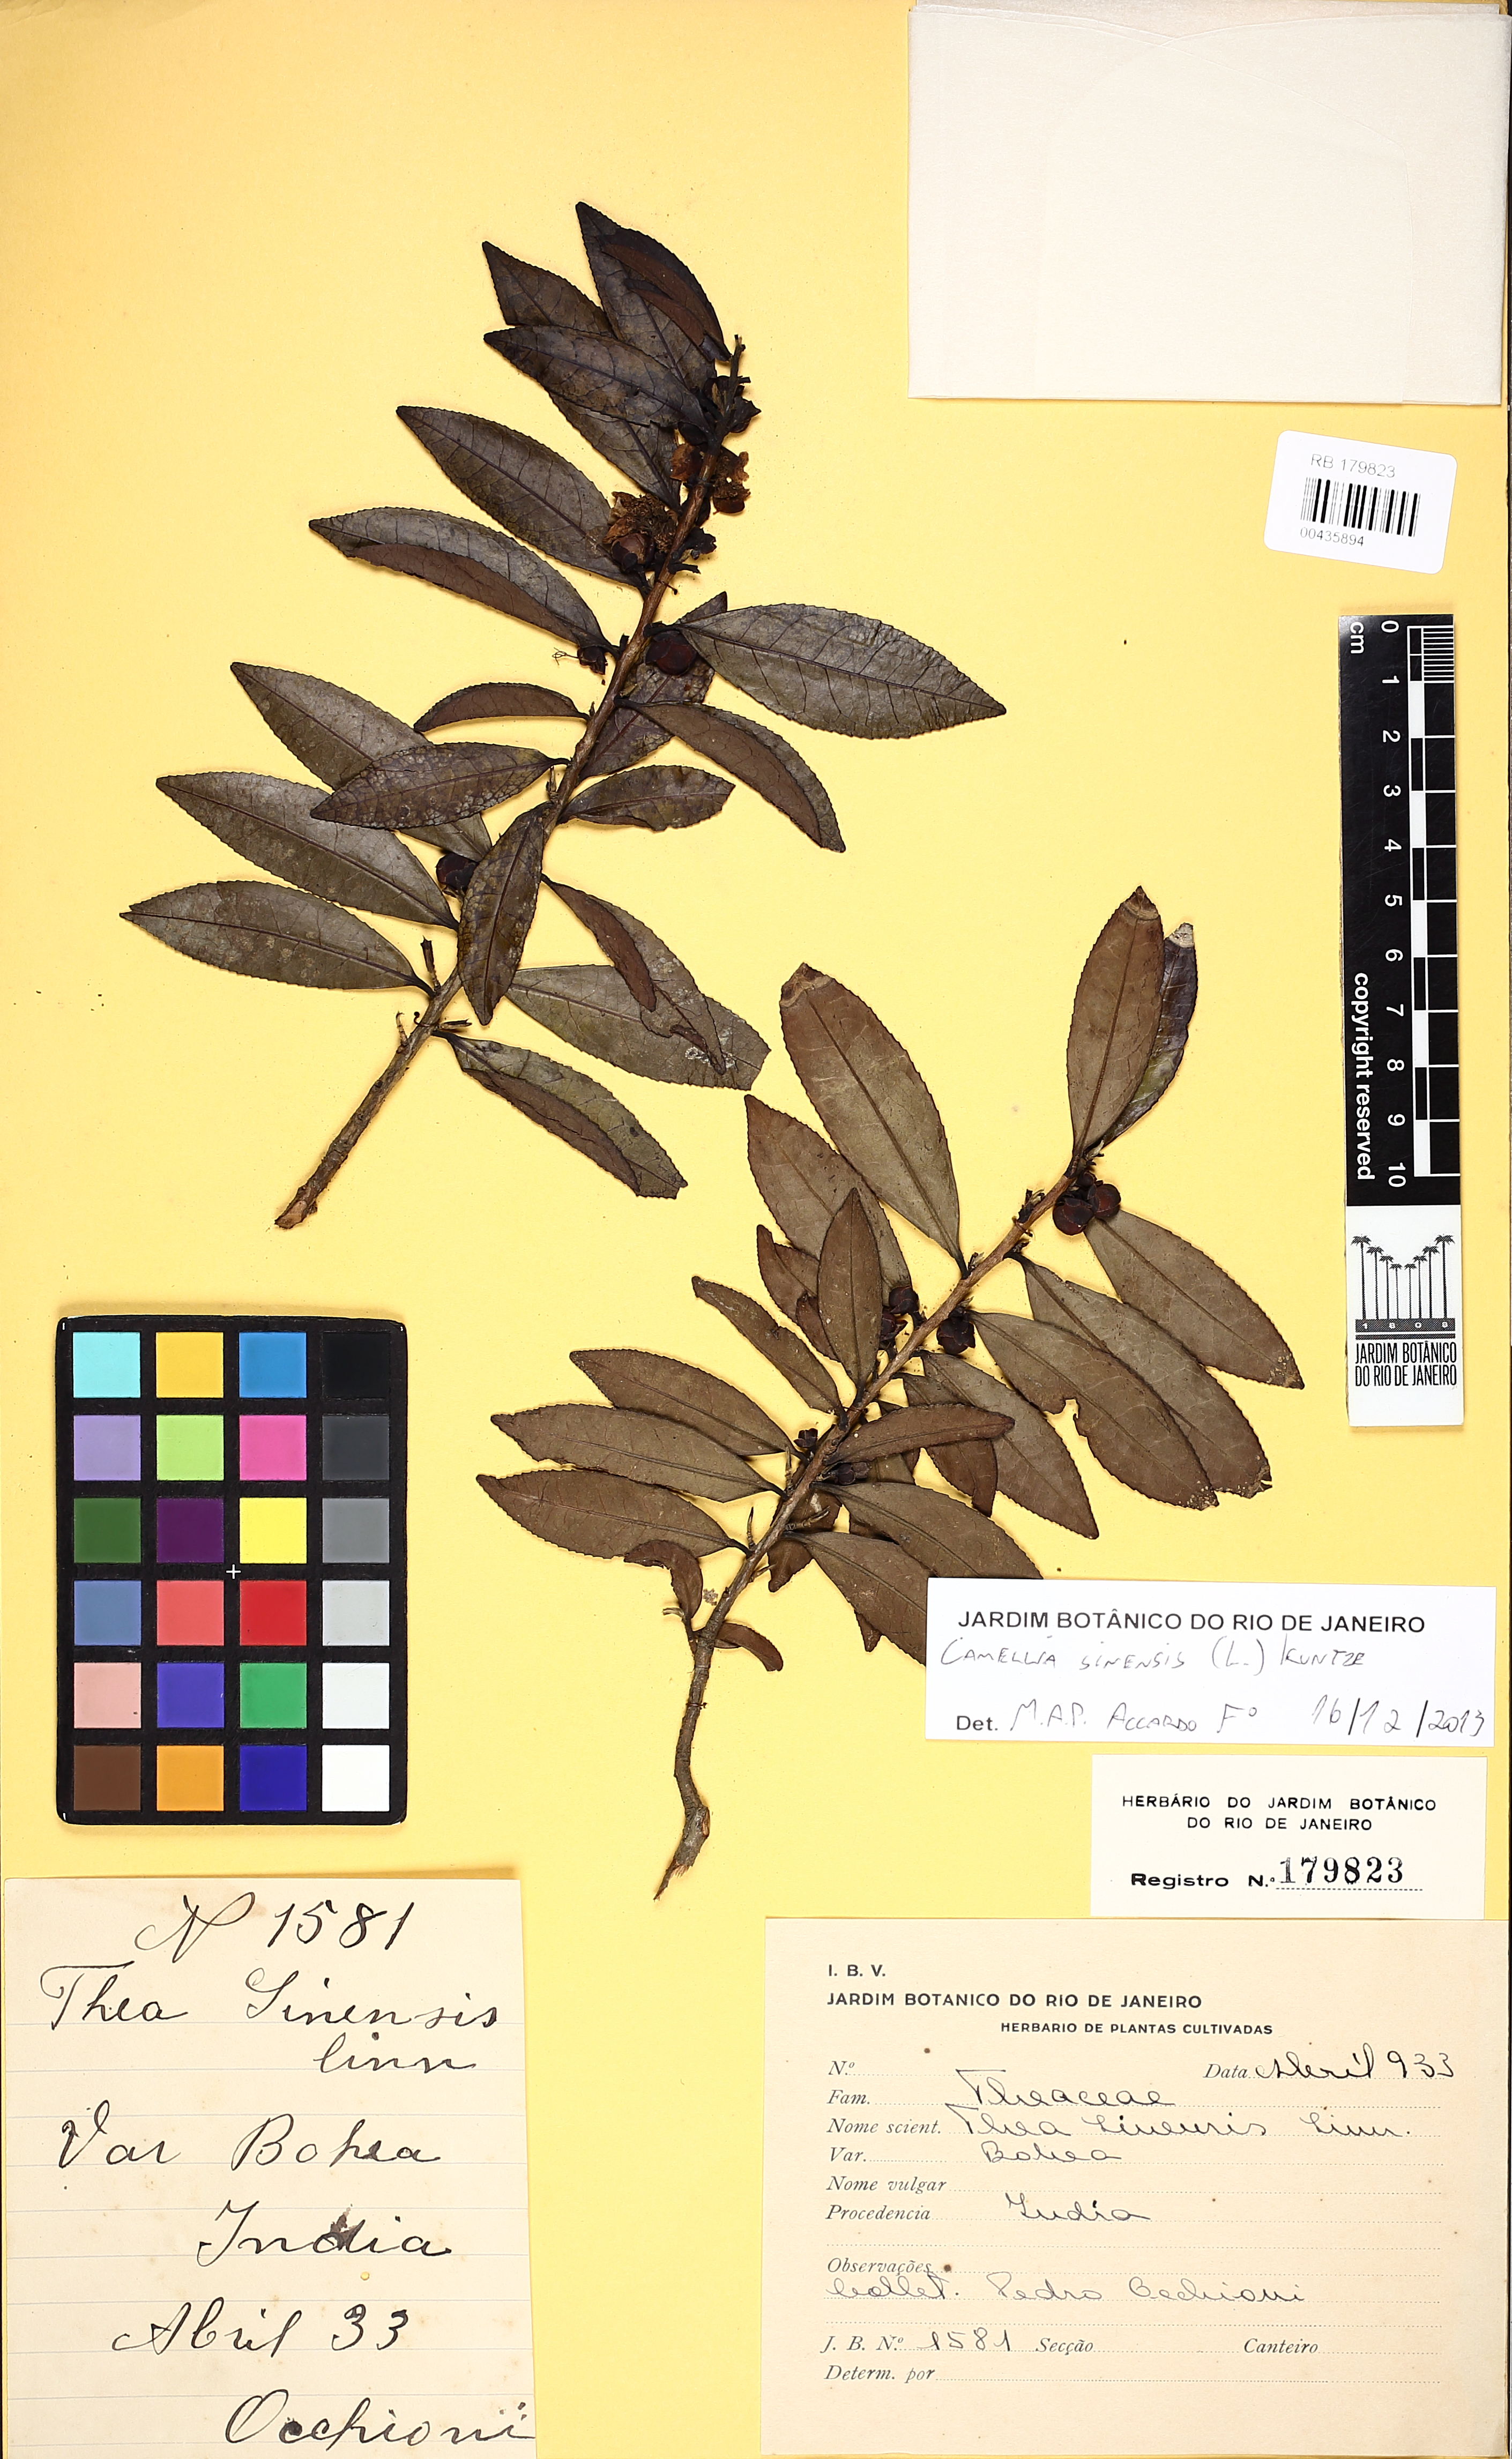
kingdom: Plantae
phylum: Tracheophyta
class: Magnoliopsida
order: Ericales
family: Theaceae
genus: Camellia
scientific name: Camellia sinensis
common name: Tea
